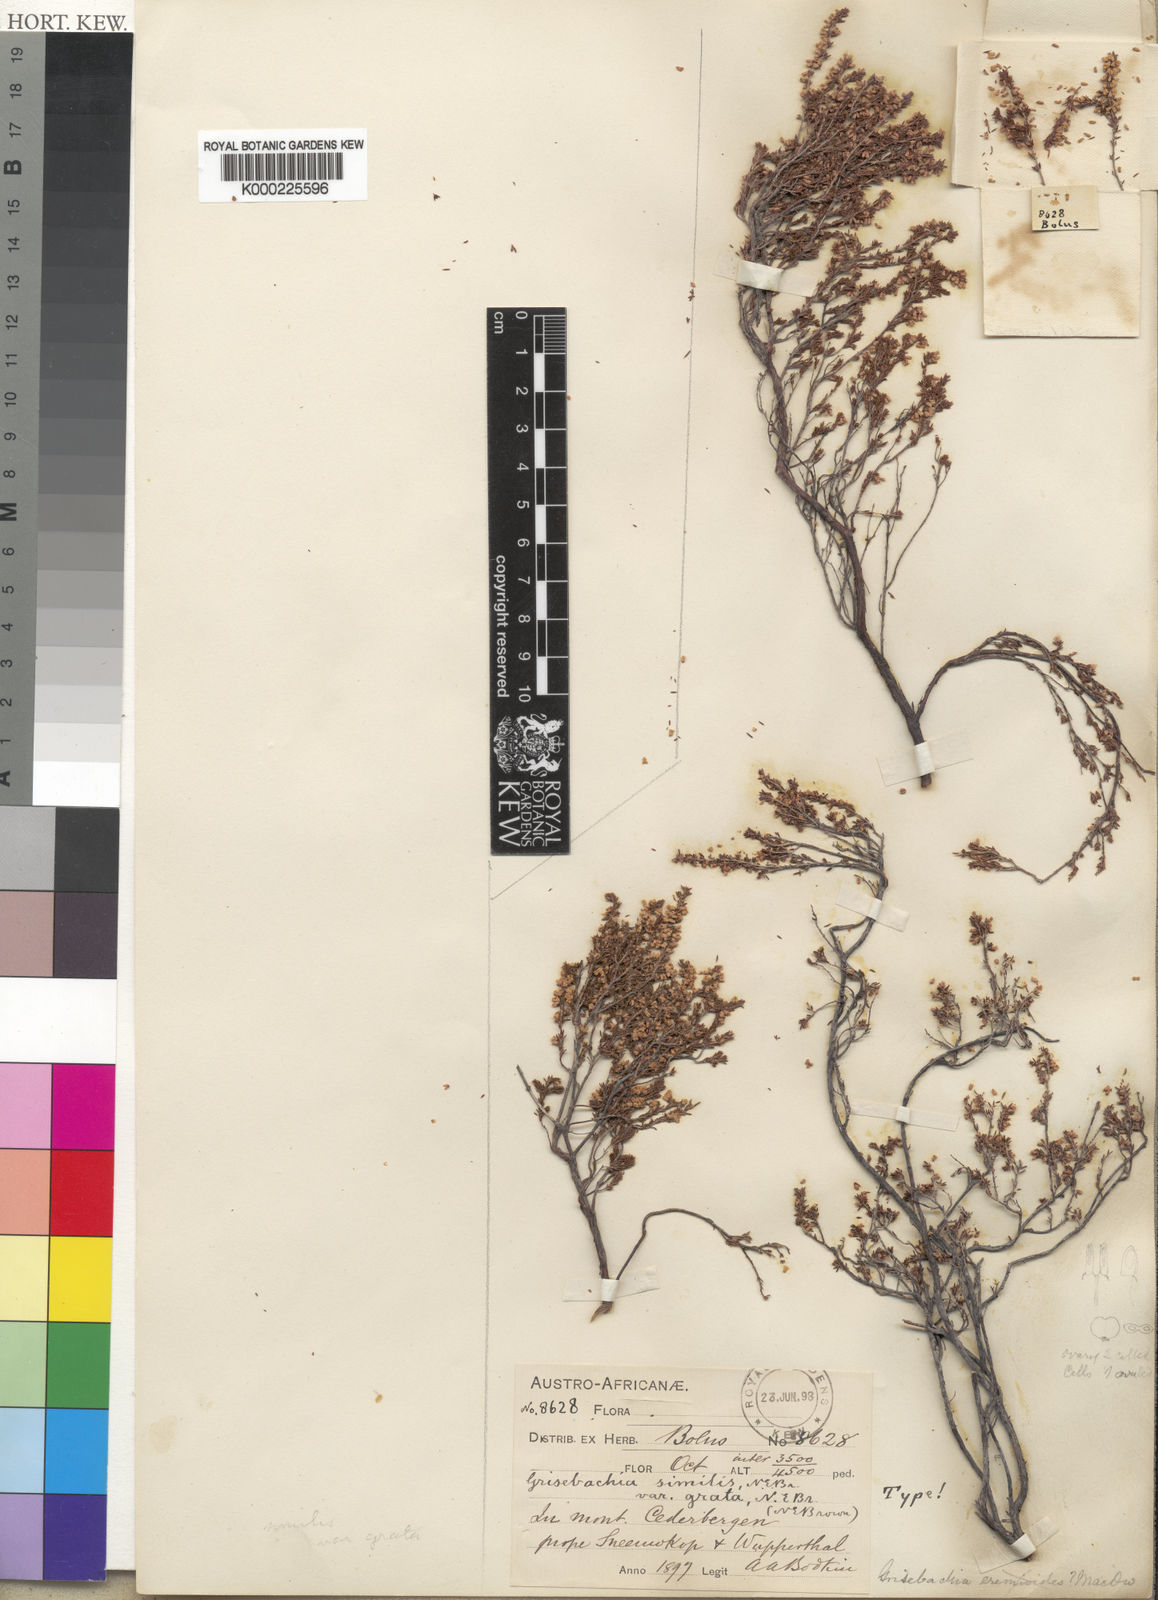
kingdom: Plantae
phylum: Tracheophyta
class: Magnoliopsida
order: Ericales
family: Ericaceae
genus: Erica
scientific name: Erica eremioides
